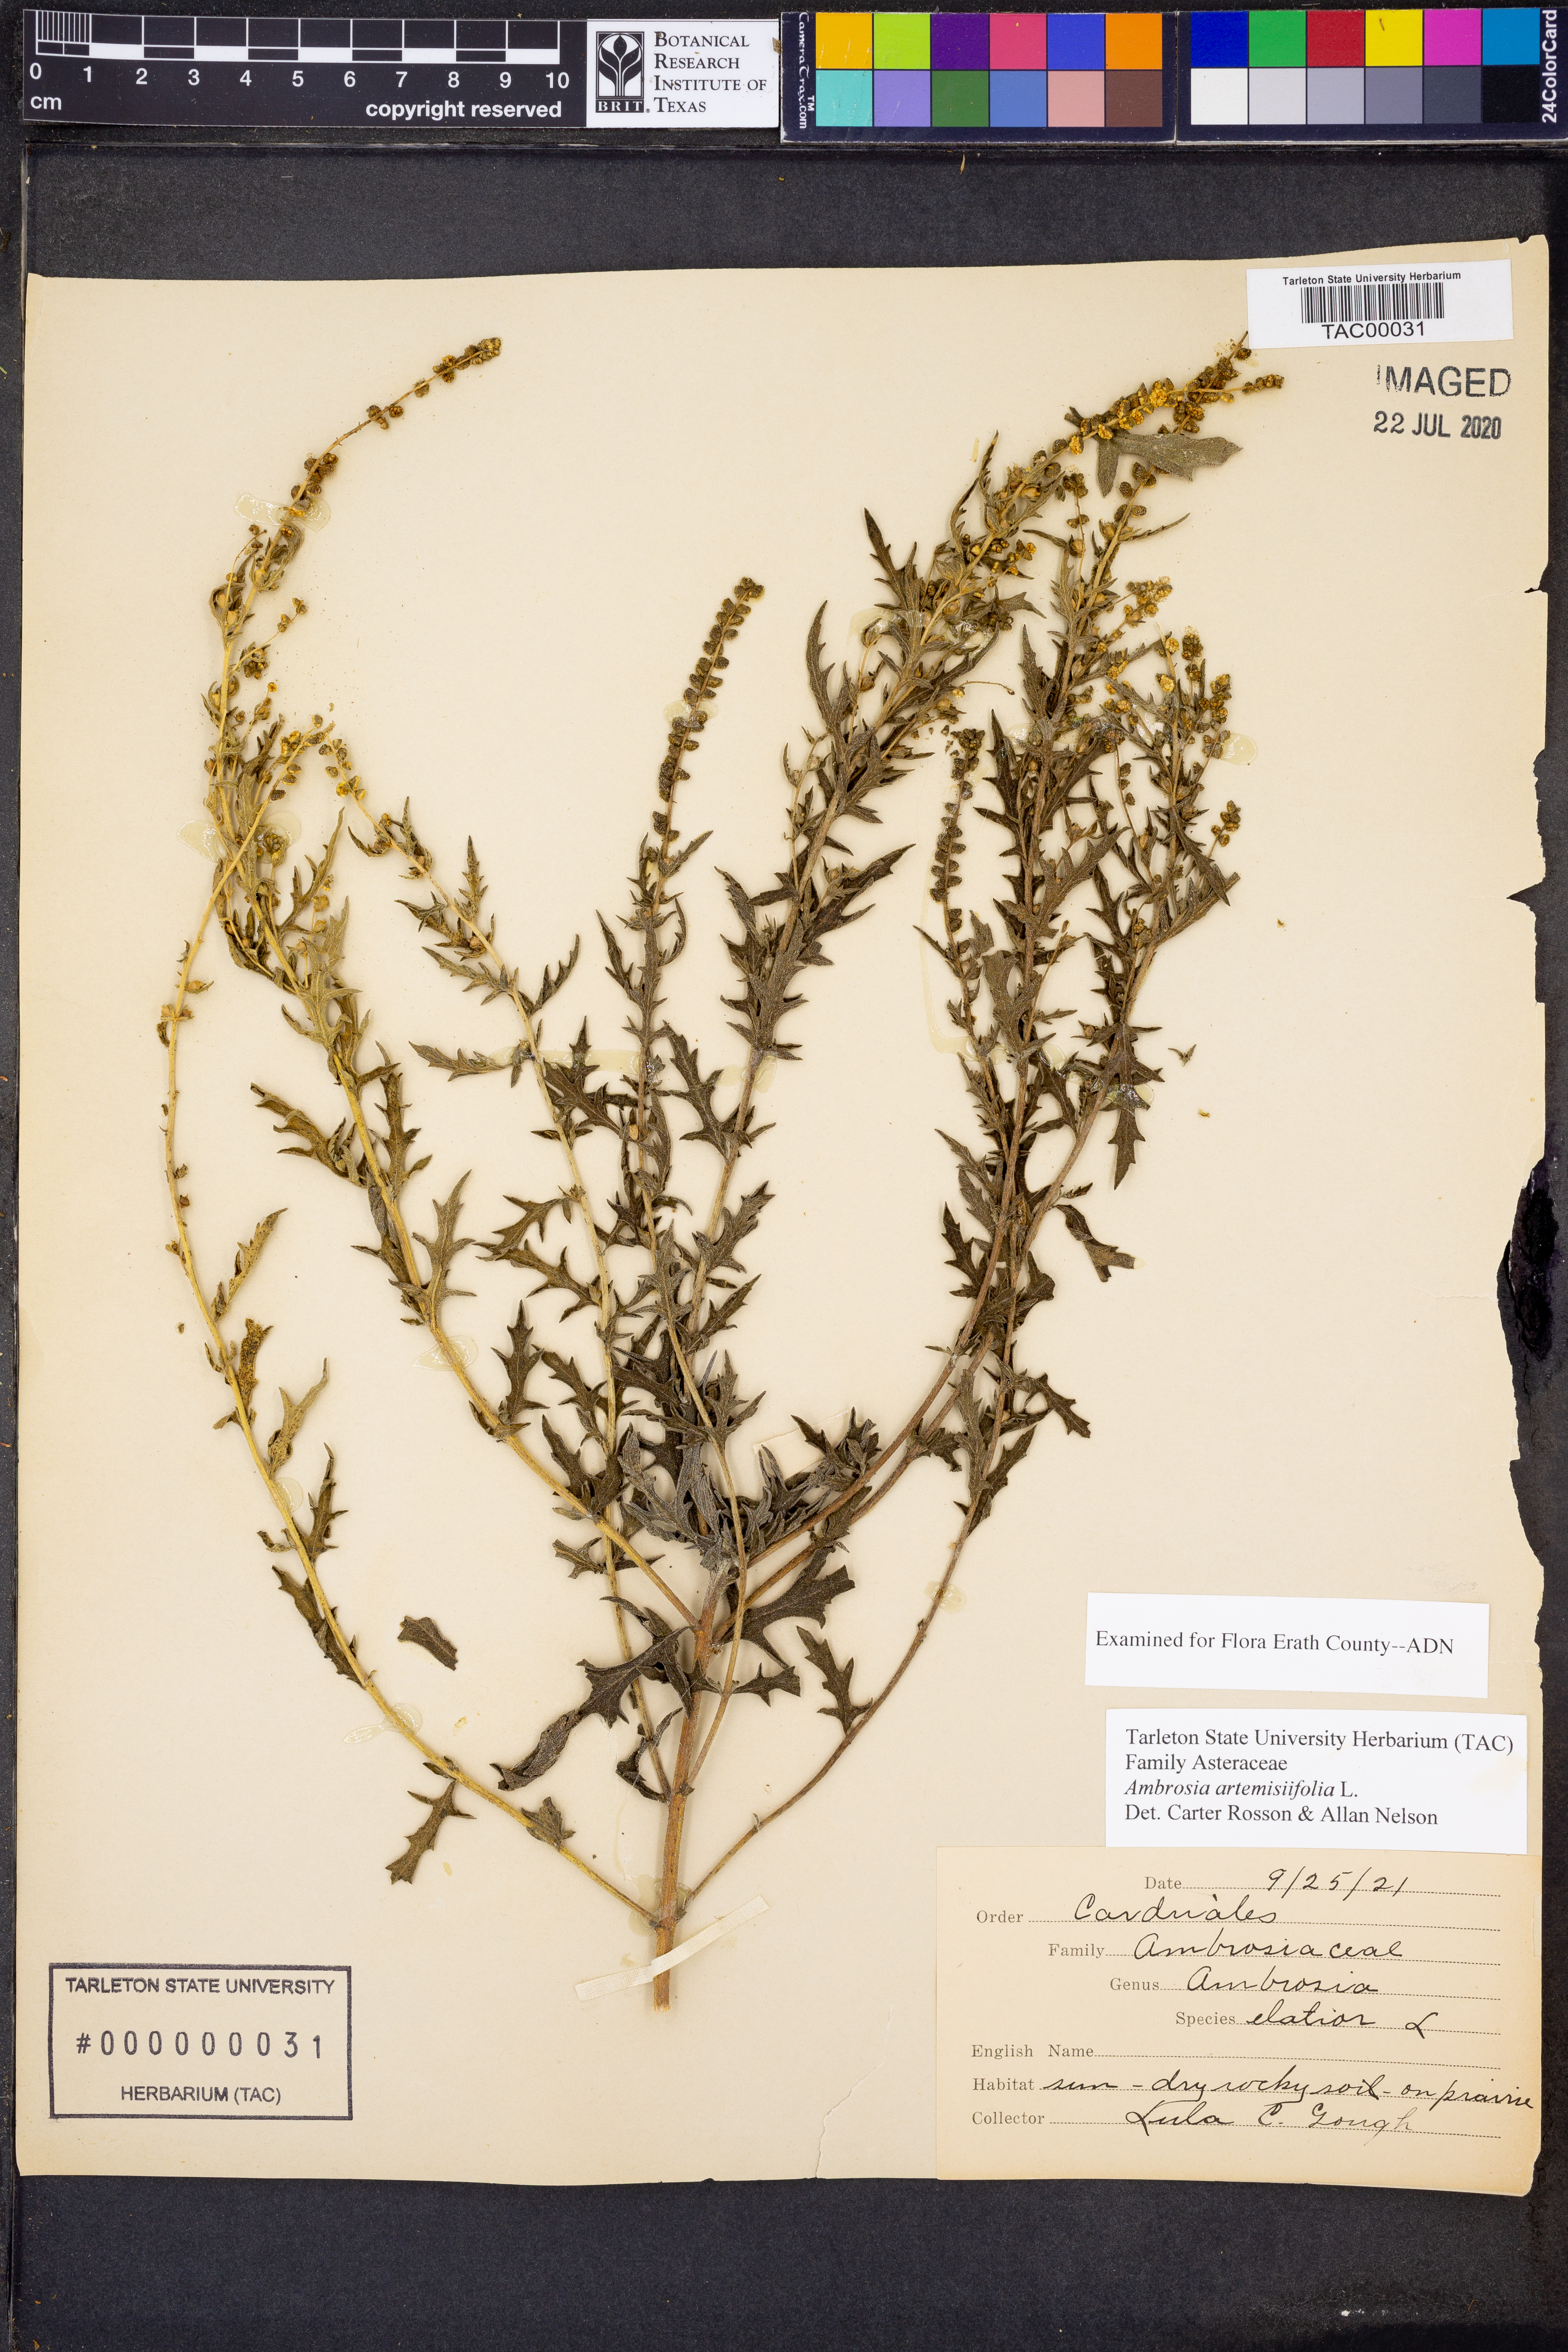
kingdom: Plantae
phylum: Tracheophyta
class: Magnoliopsida
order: Asterales
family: Asteraceae
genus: Ambrosia
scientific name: Ambrosia artemisiifolia
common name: Annual ragweed
